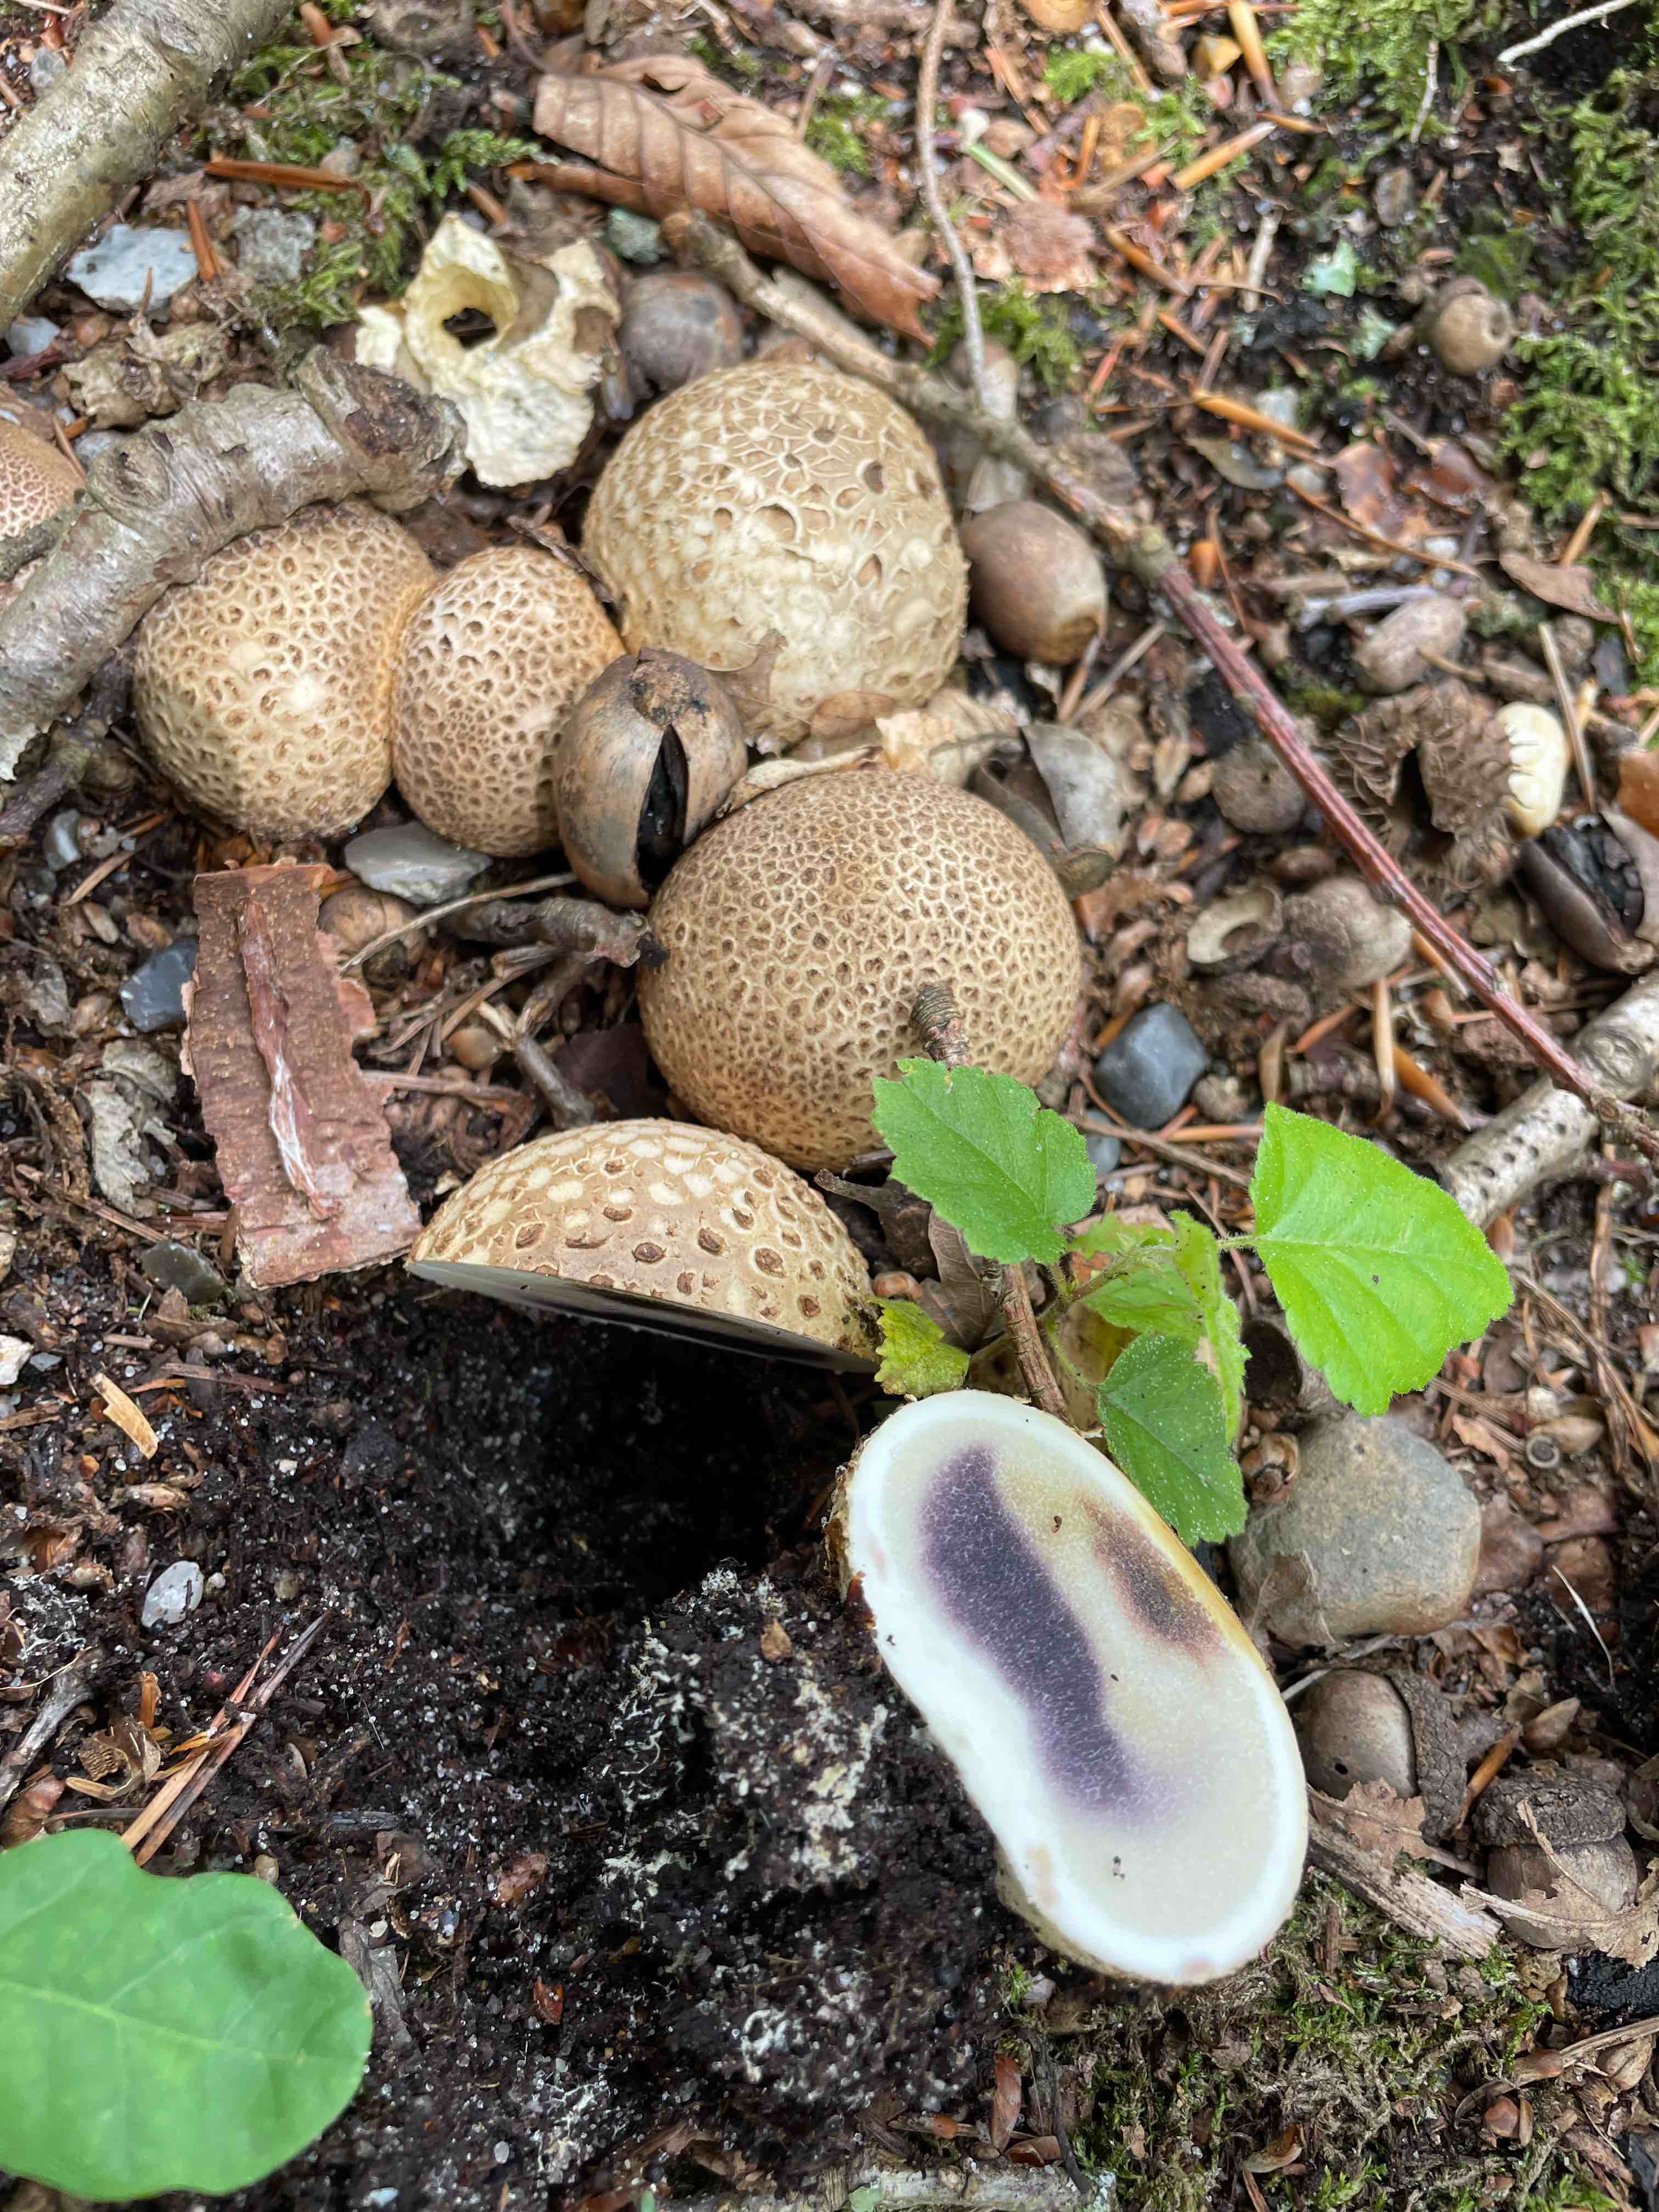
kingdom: Fungi
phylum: Basidiomycota
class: Agaricomycetes
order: Boletales
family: Sclerodermataceae
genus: Scleroderma
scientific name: Scleroderma citrinum
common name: almindelig bruskbold
